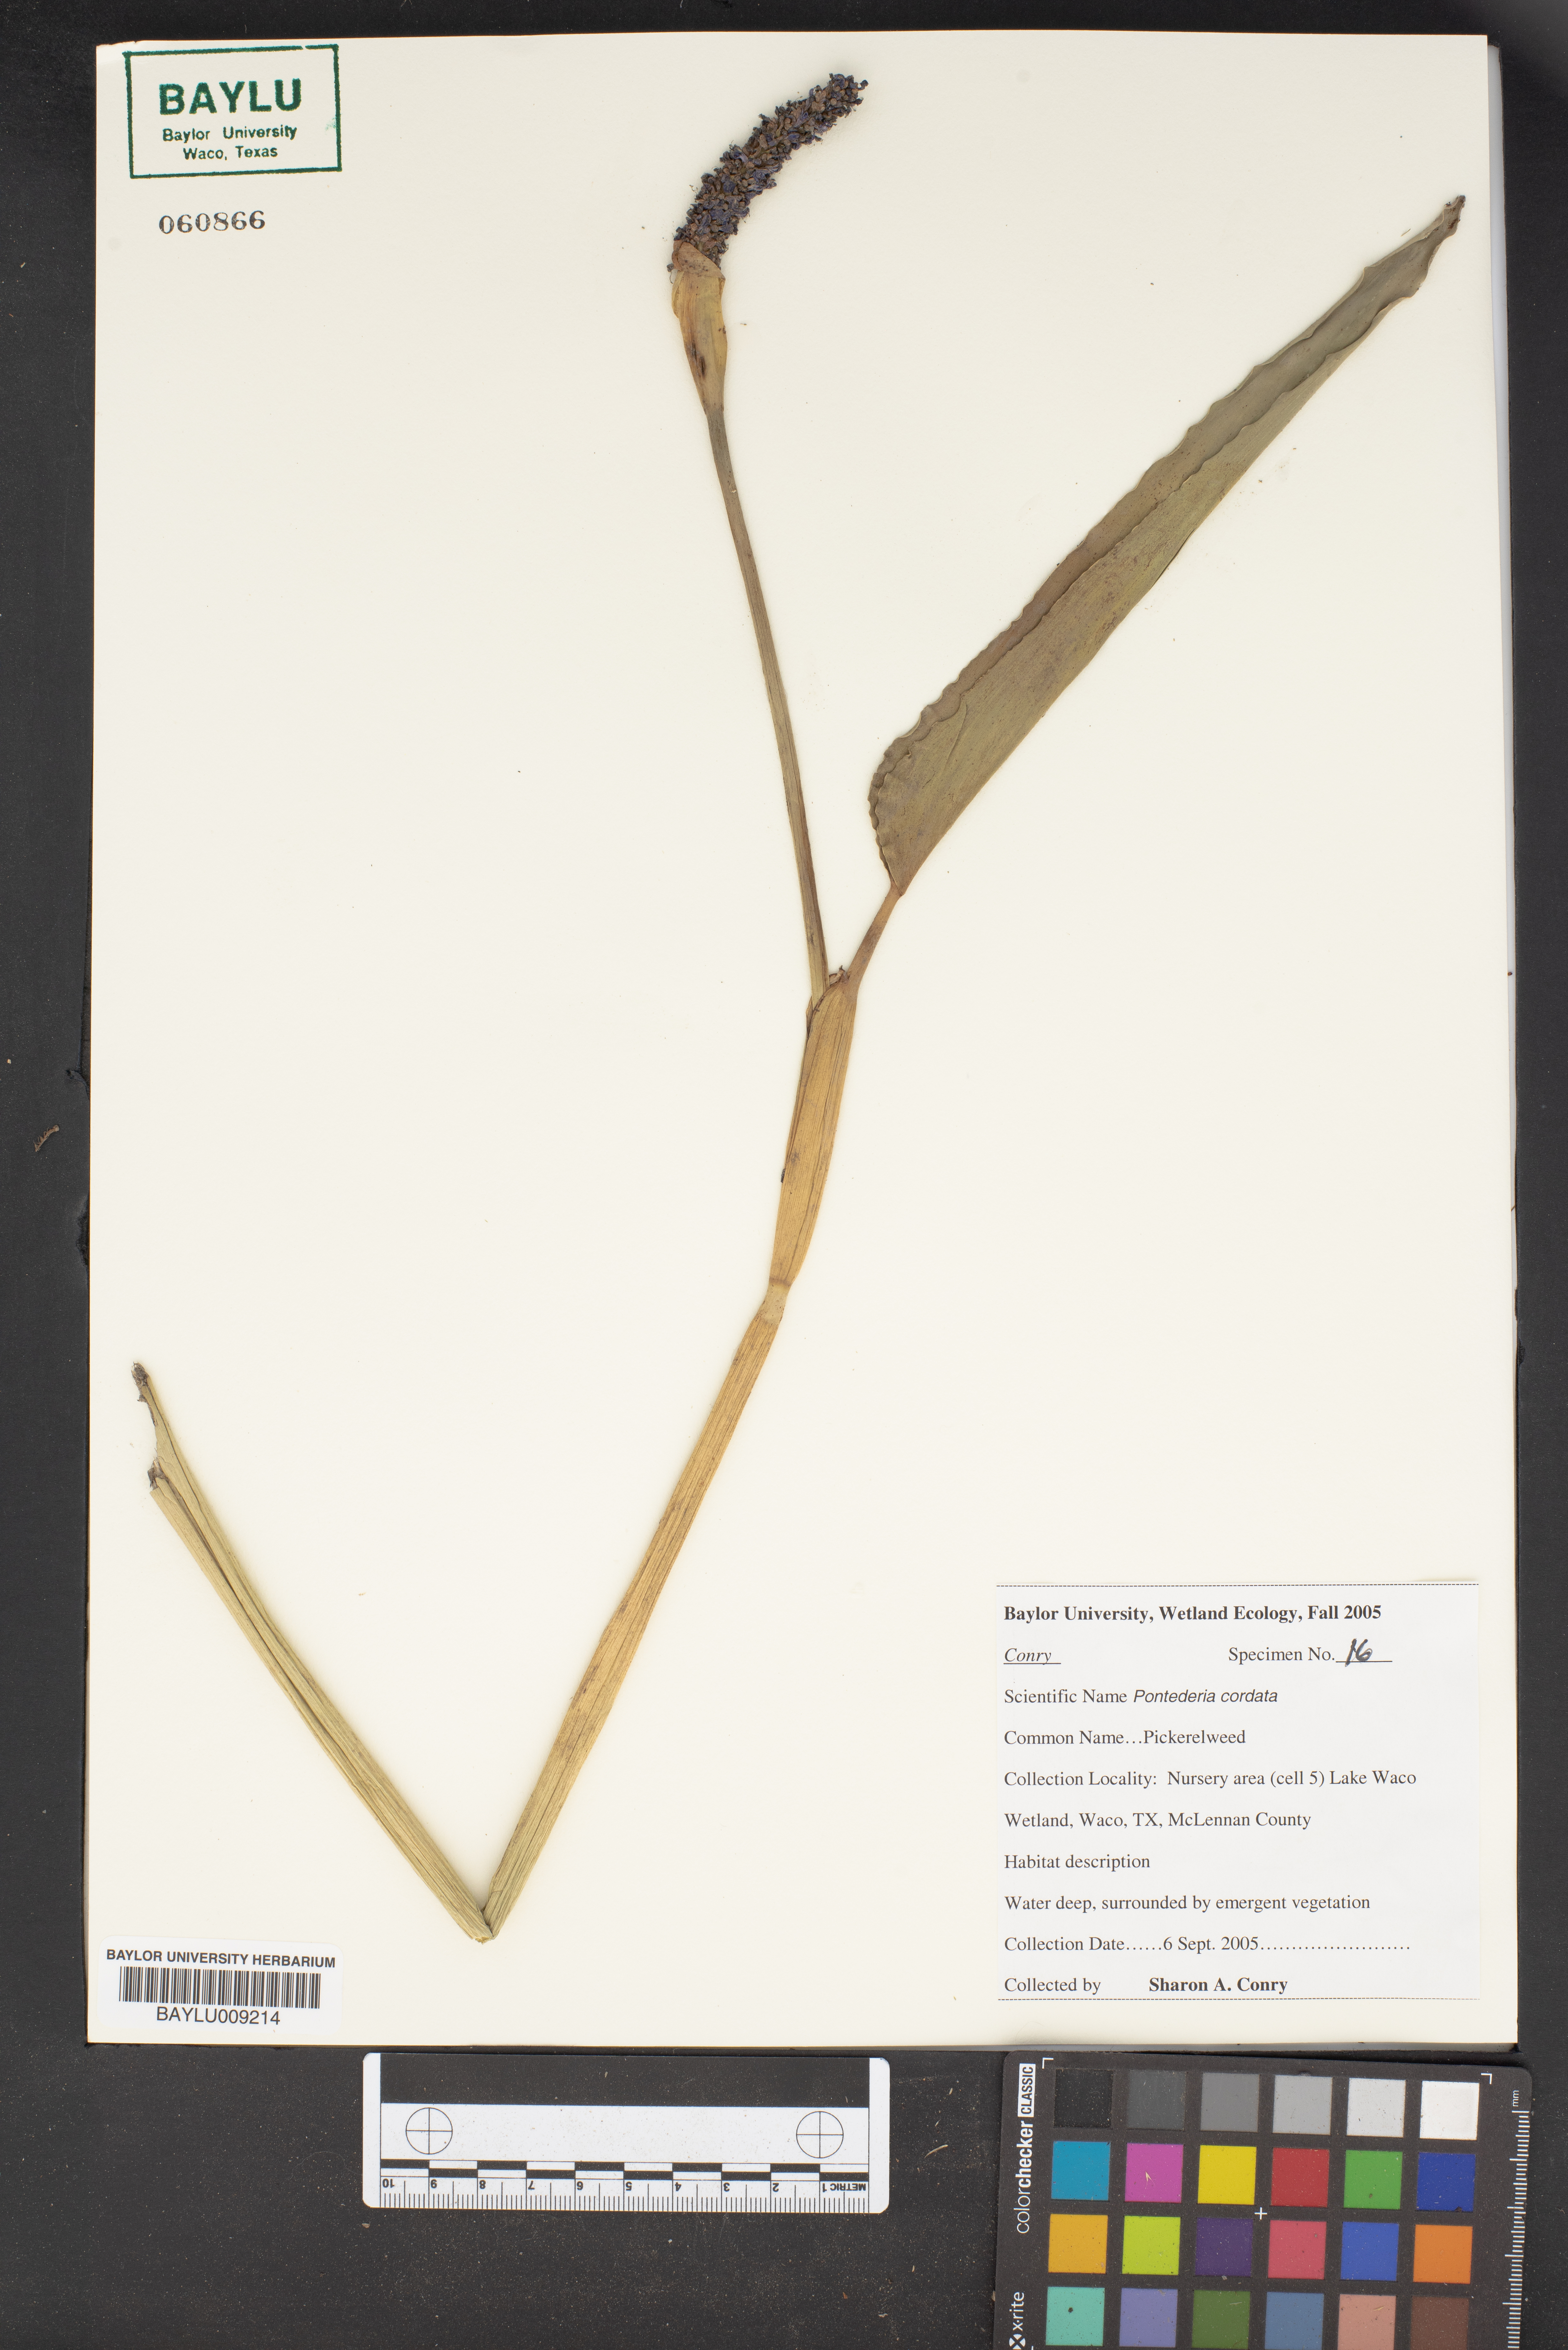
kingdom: Plantae
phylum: Tracheophyta
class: Liliopsida
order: Commelinales
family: Pontederiaceae
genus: Pontederia
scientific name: Pontederia cordata
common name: Pickerelweed
